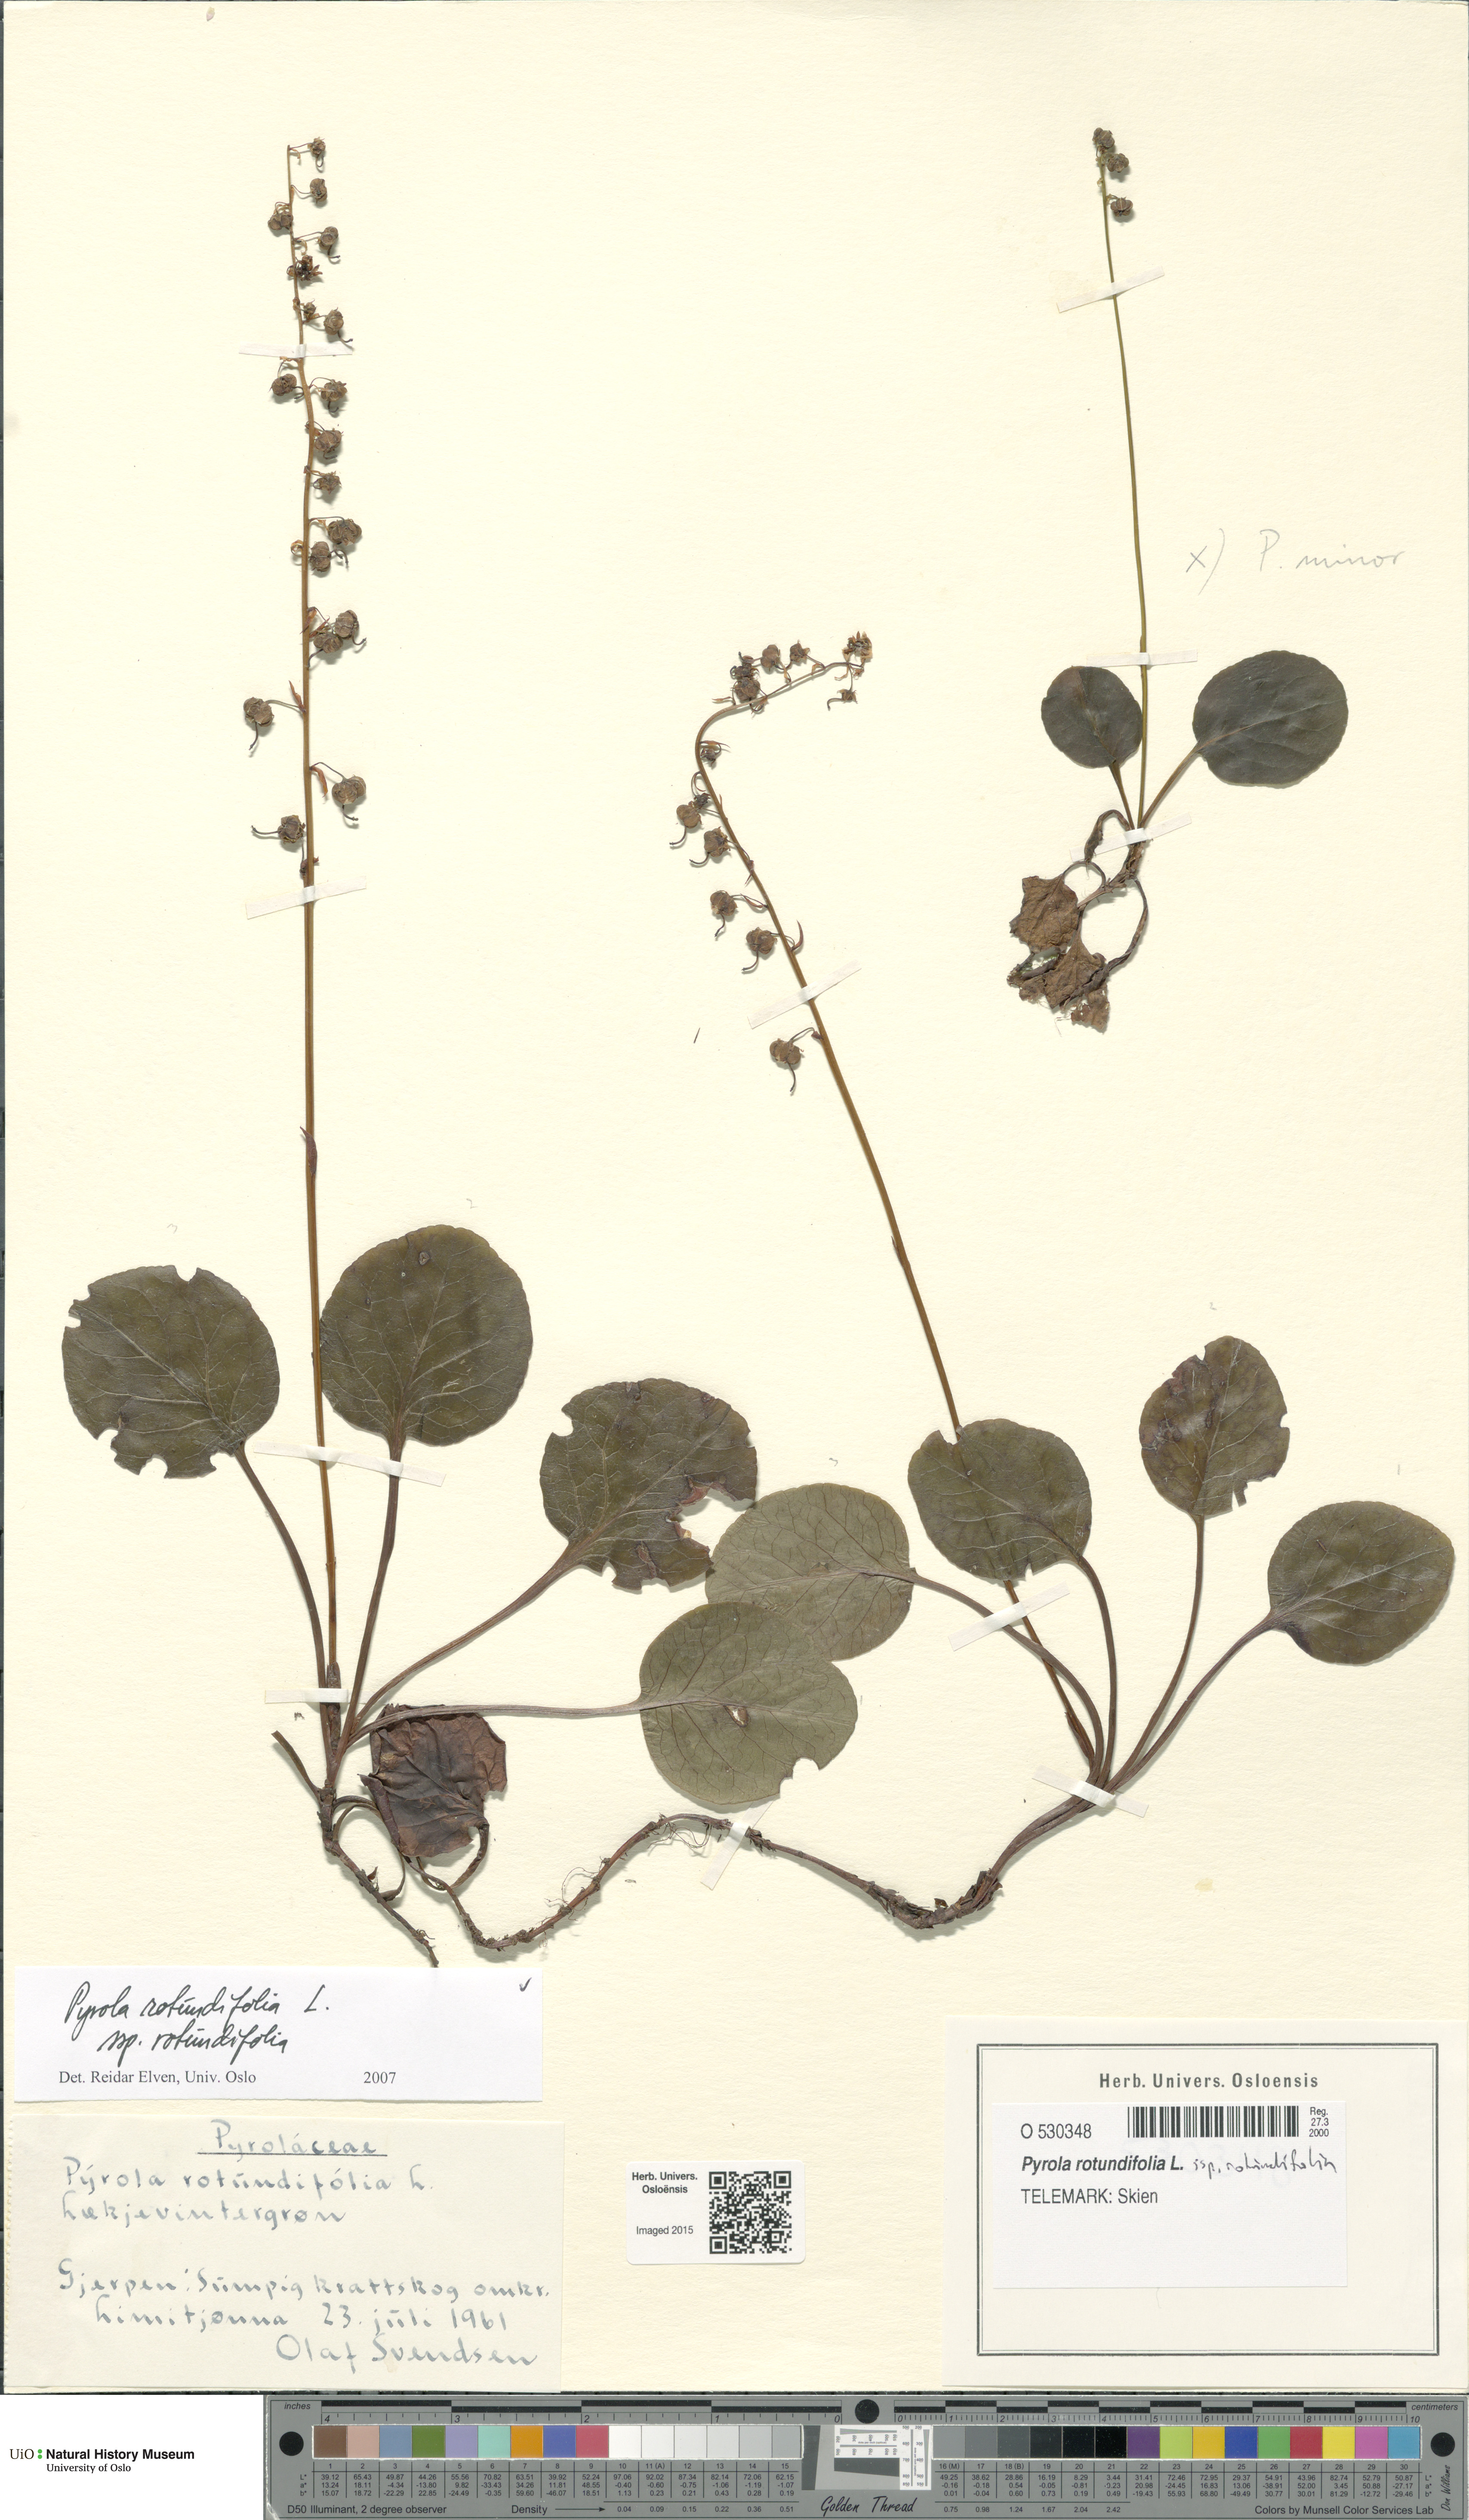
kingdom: Plantae
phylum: Tracheophyta
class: Magnoliopsida
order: Ericales
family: Ericaceae
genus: Pyrola
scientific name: Pyrola rotundifolia
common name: Round-leaved wintergreen
